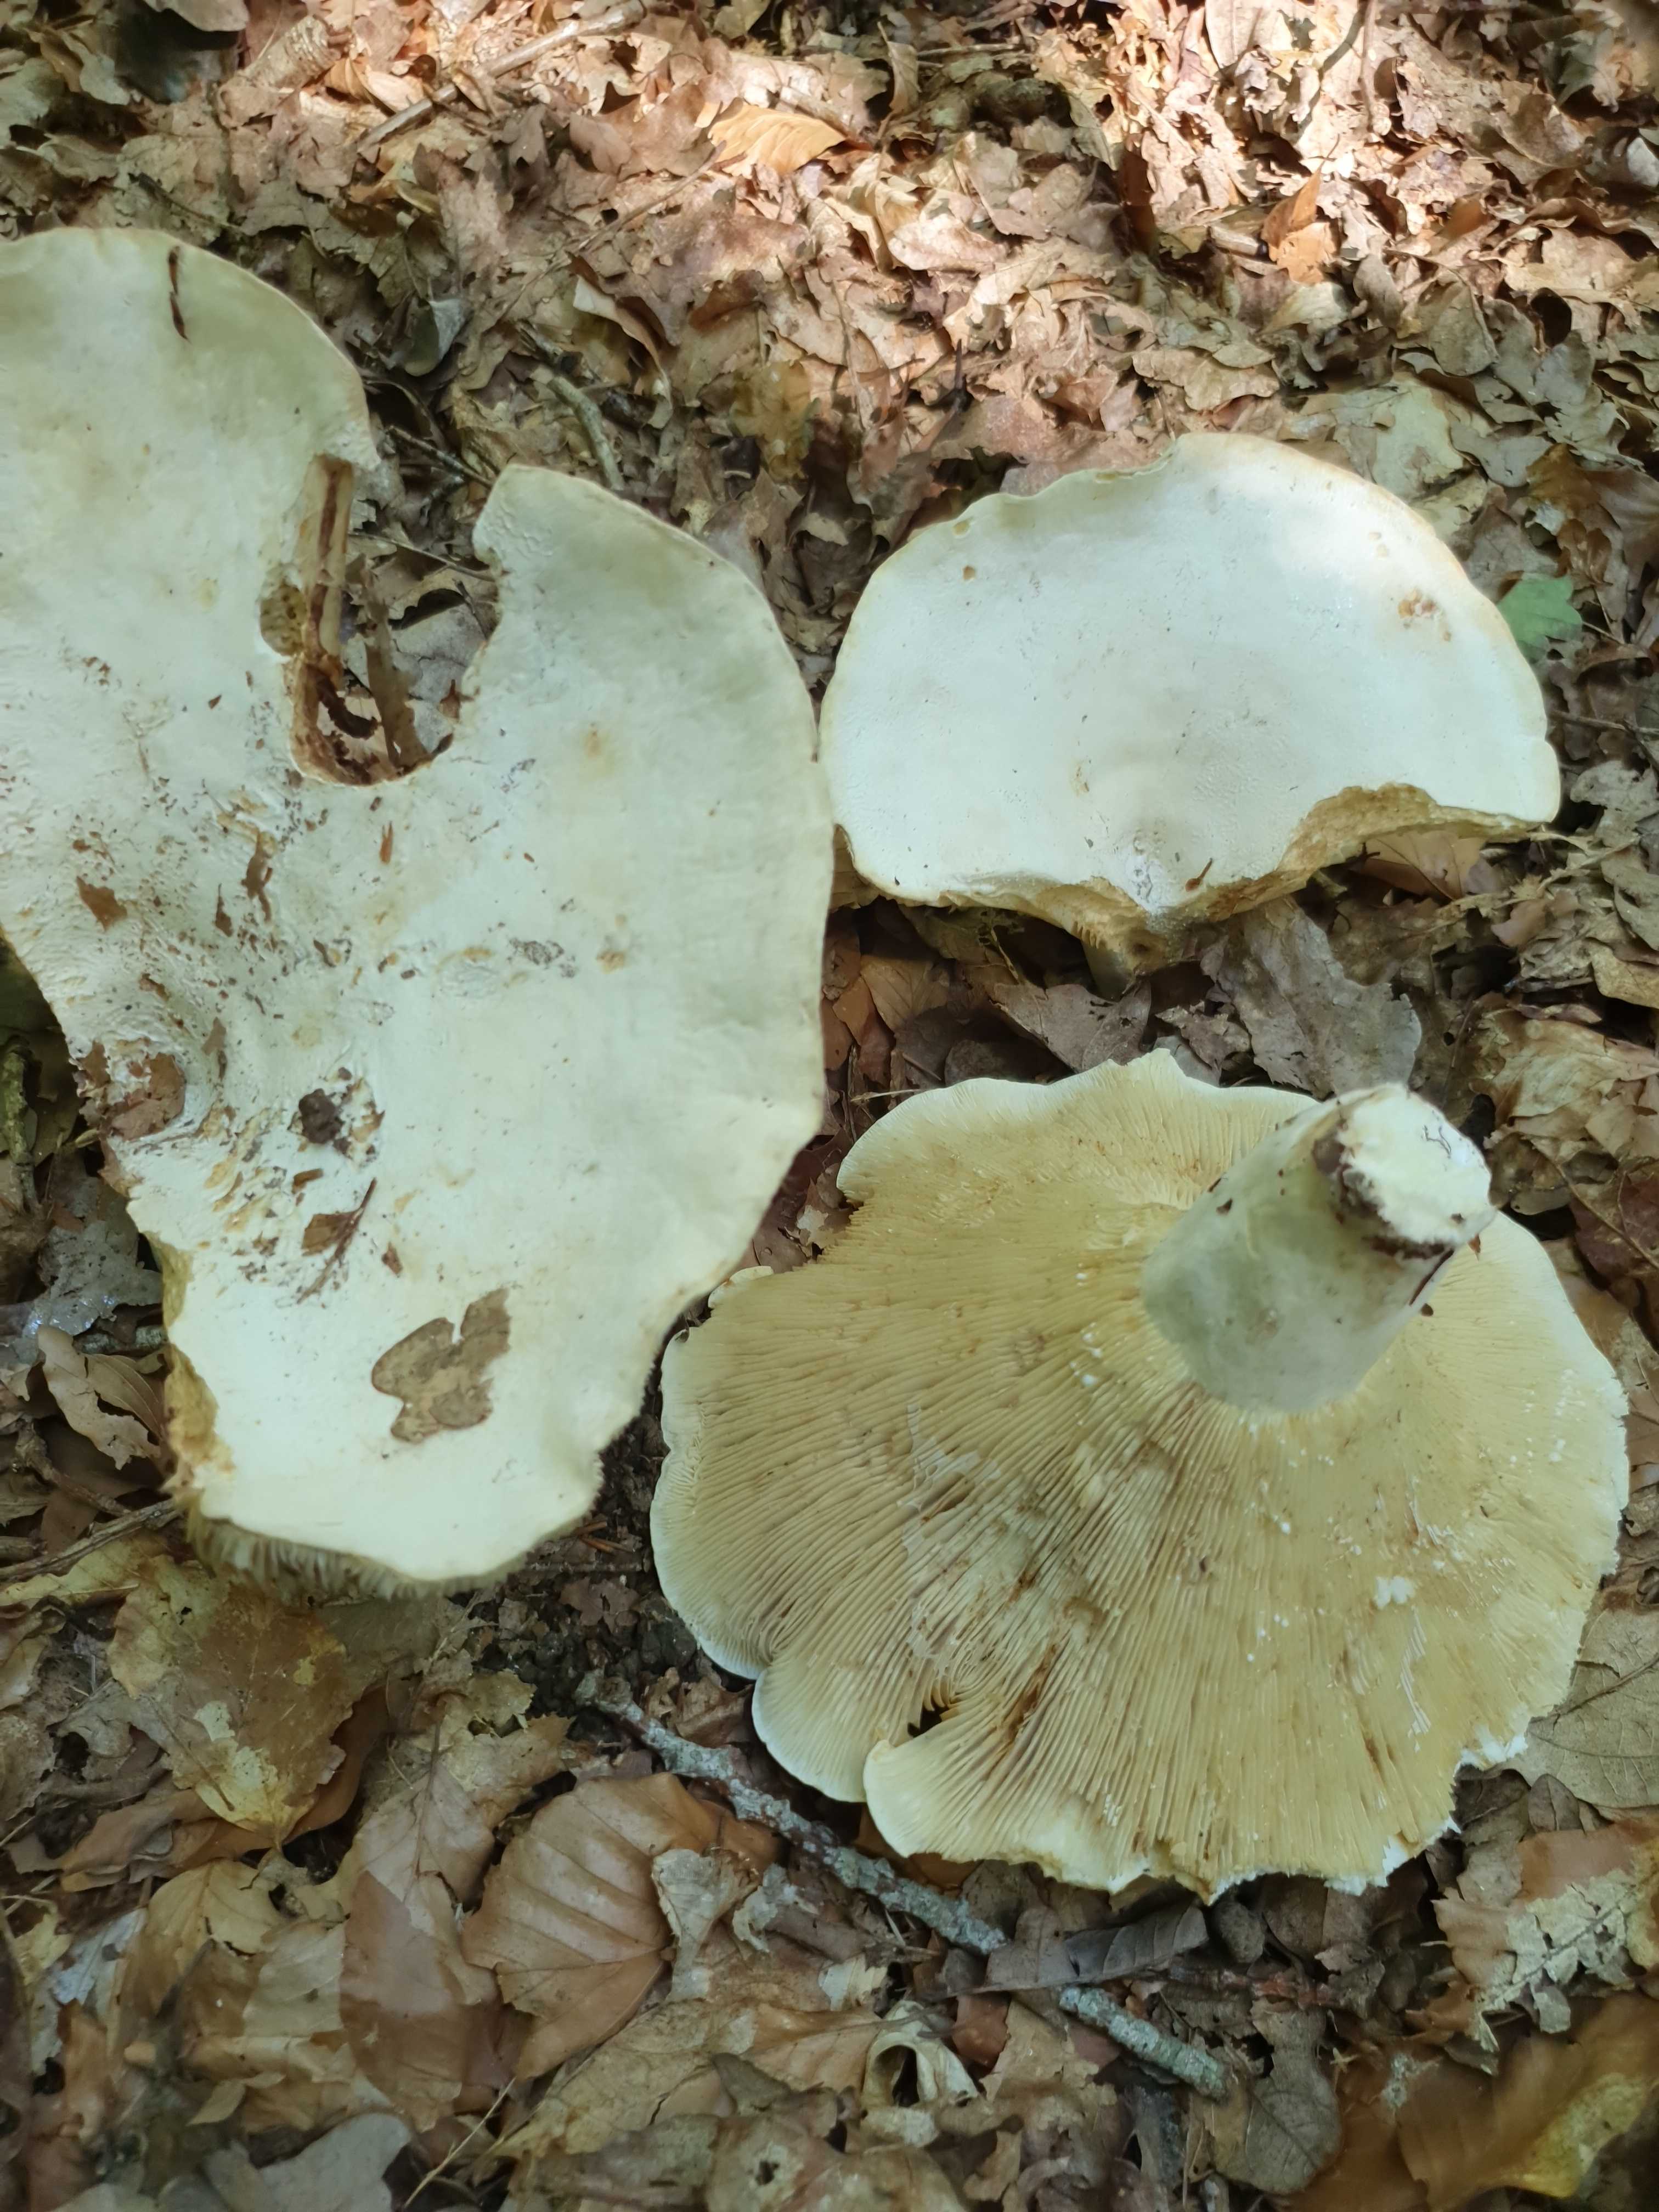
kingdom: Fungi
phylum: Basidiomycota
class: Agaricomycetes
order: Russulales
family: Russulaceae
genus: Lactifluus
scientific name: Lactifluus
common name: mælkehat
